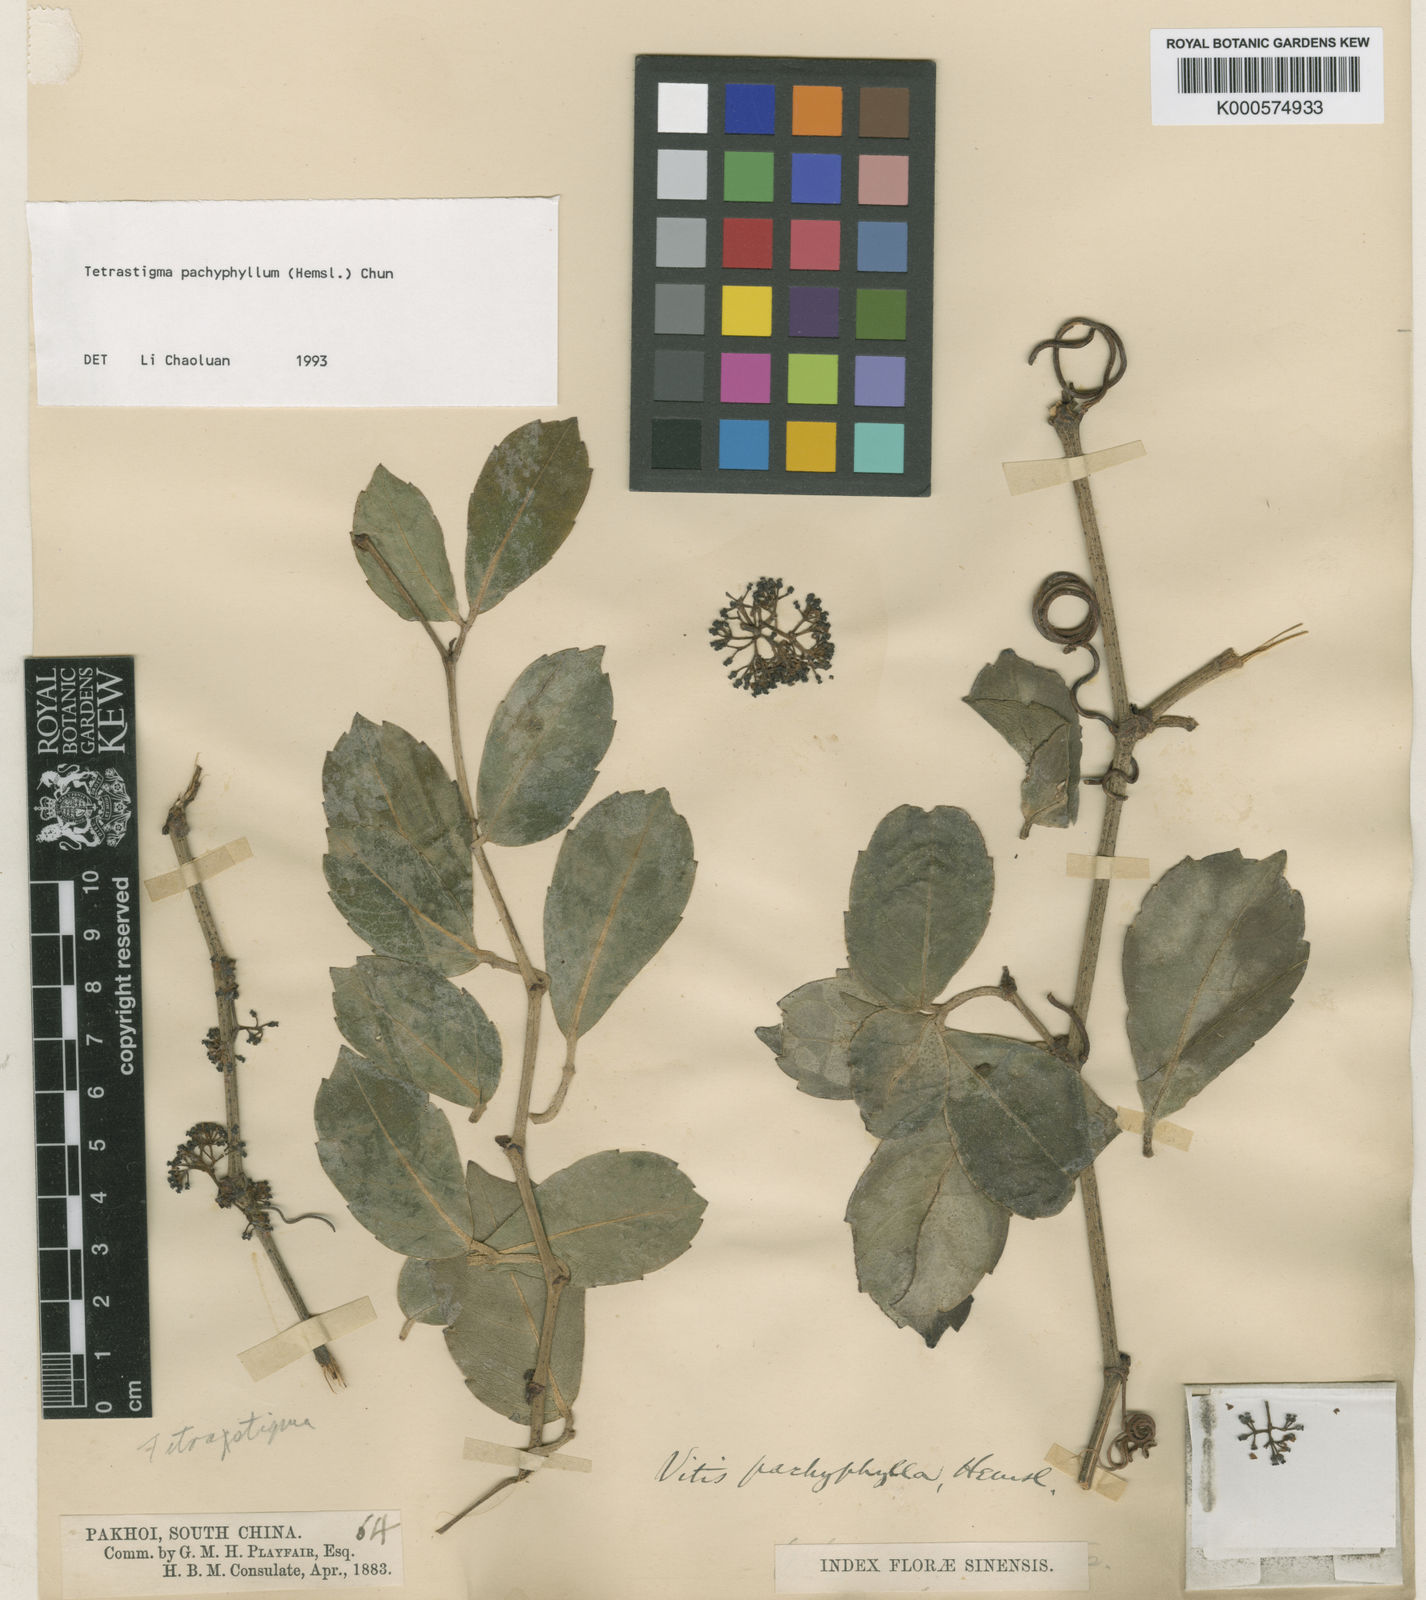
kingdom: Plantae
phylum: Tracheophyta
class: Magnoliopsida
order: Vitales
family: Vitaceae
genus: Tetrastigma
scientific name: Tetrastigma pachyphyllum
